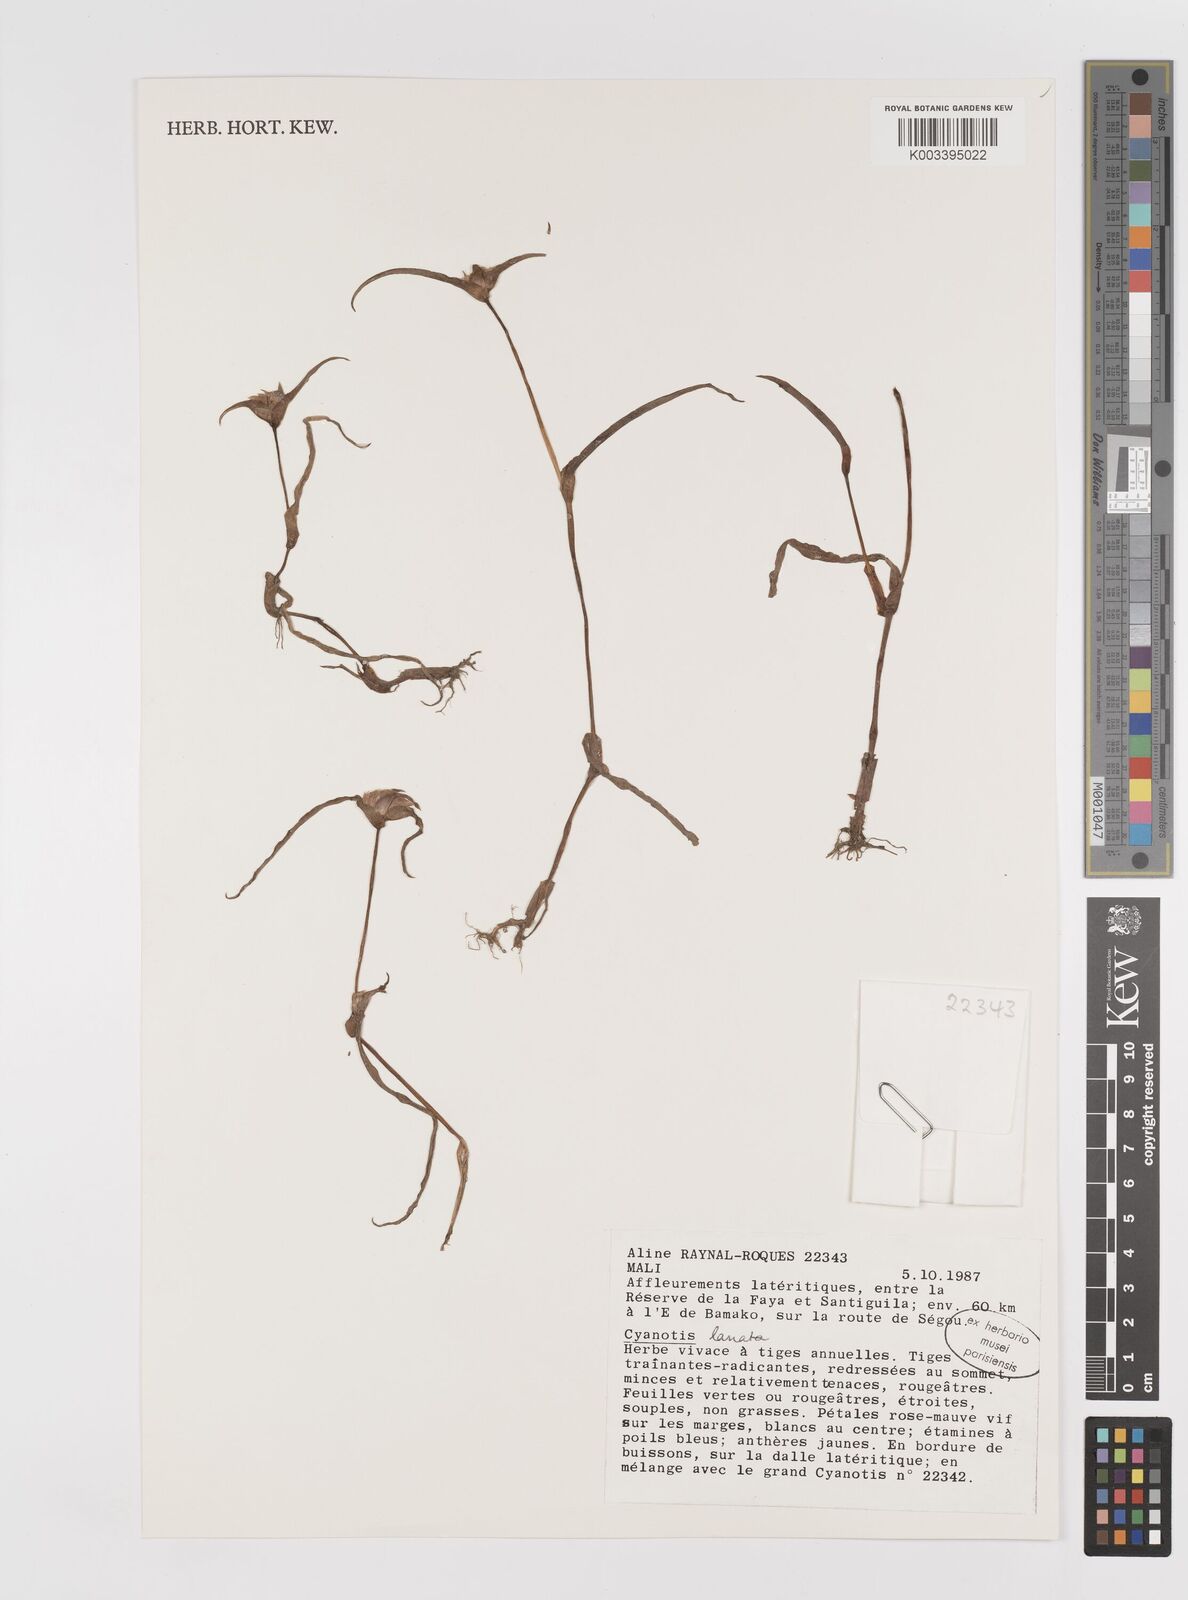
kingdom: Plantae
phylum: Tracheophyta
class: Liliopsida
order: Commelinales
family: Commelinaceae
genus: Cyanotis
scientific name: Cyanotis lanata
